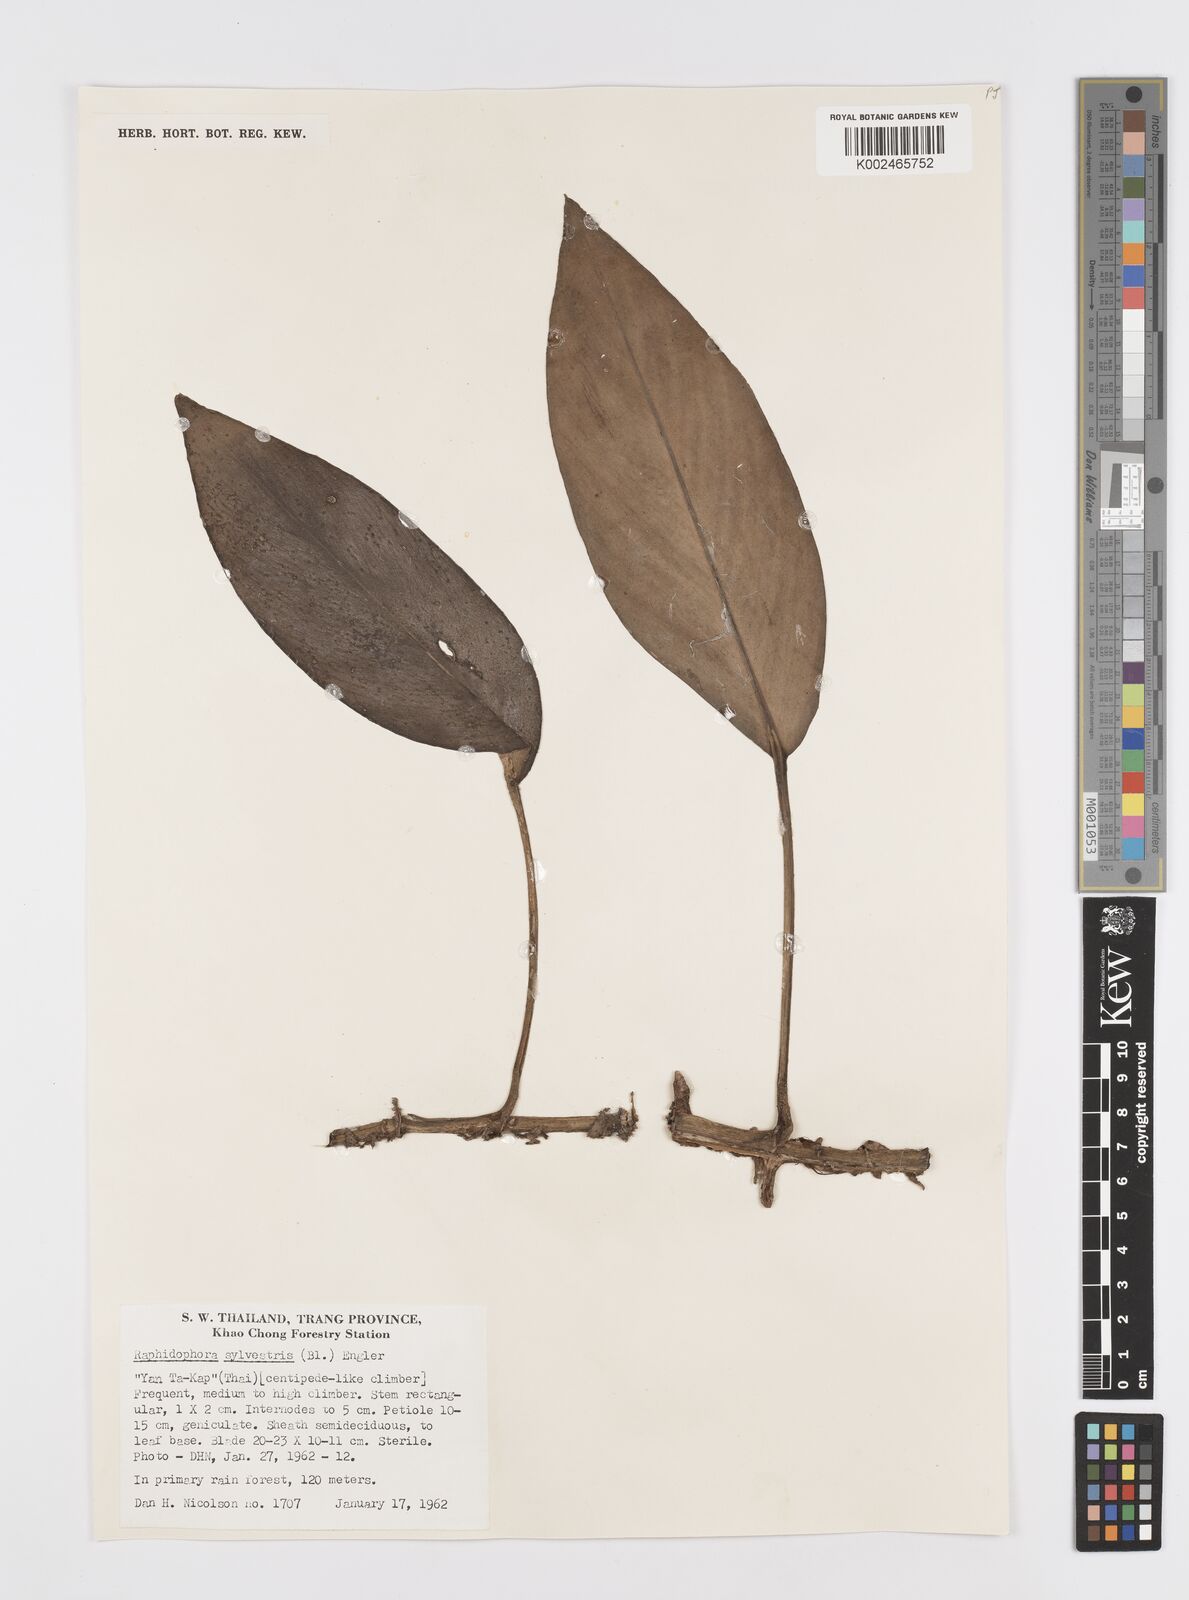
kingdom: Plantae
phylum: Tracheophyta
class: Liliopsida
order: Alismatales
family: Araceae
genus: Rhaphidophora
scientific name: Rhaphidophora
